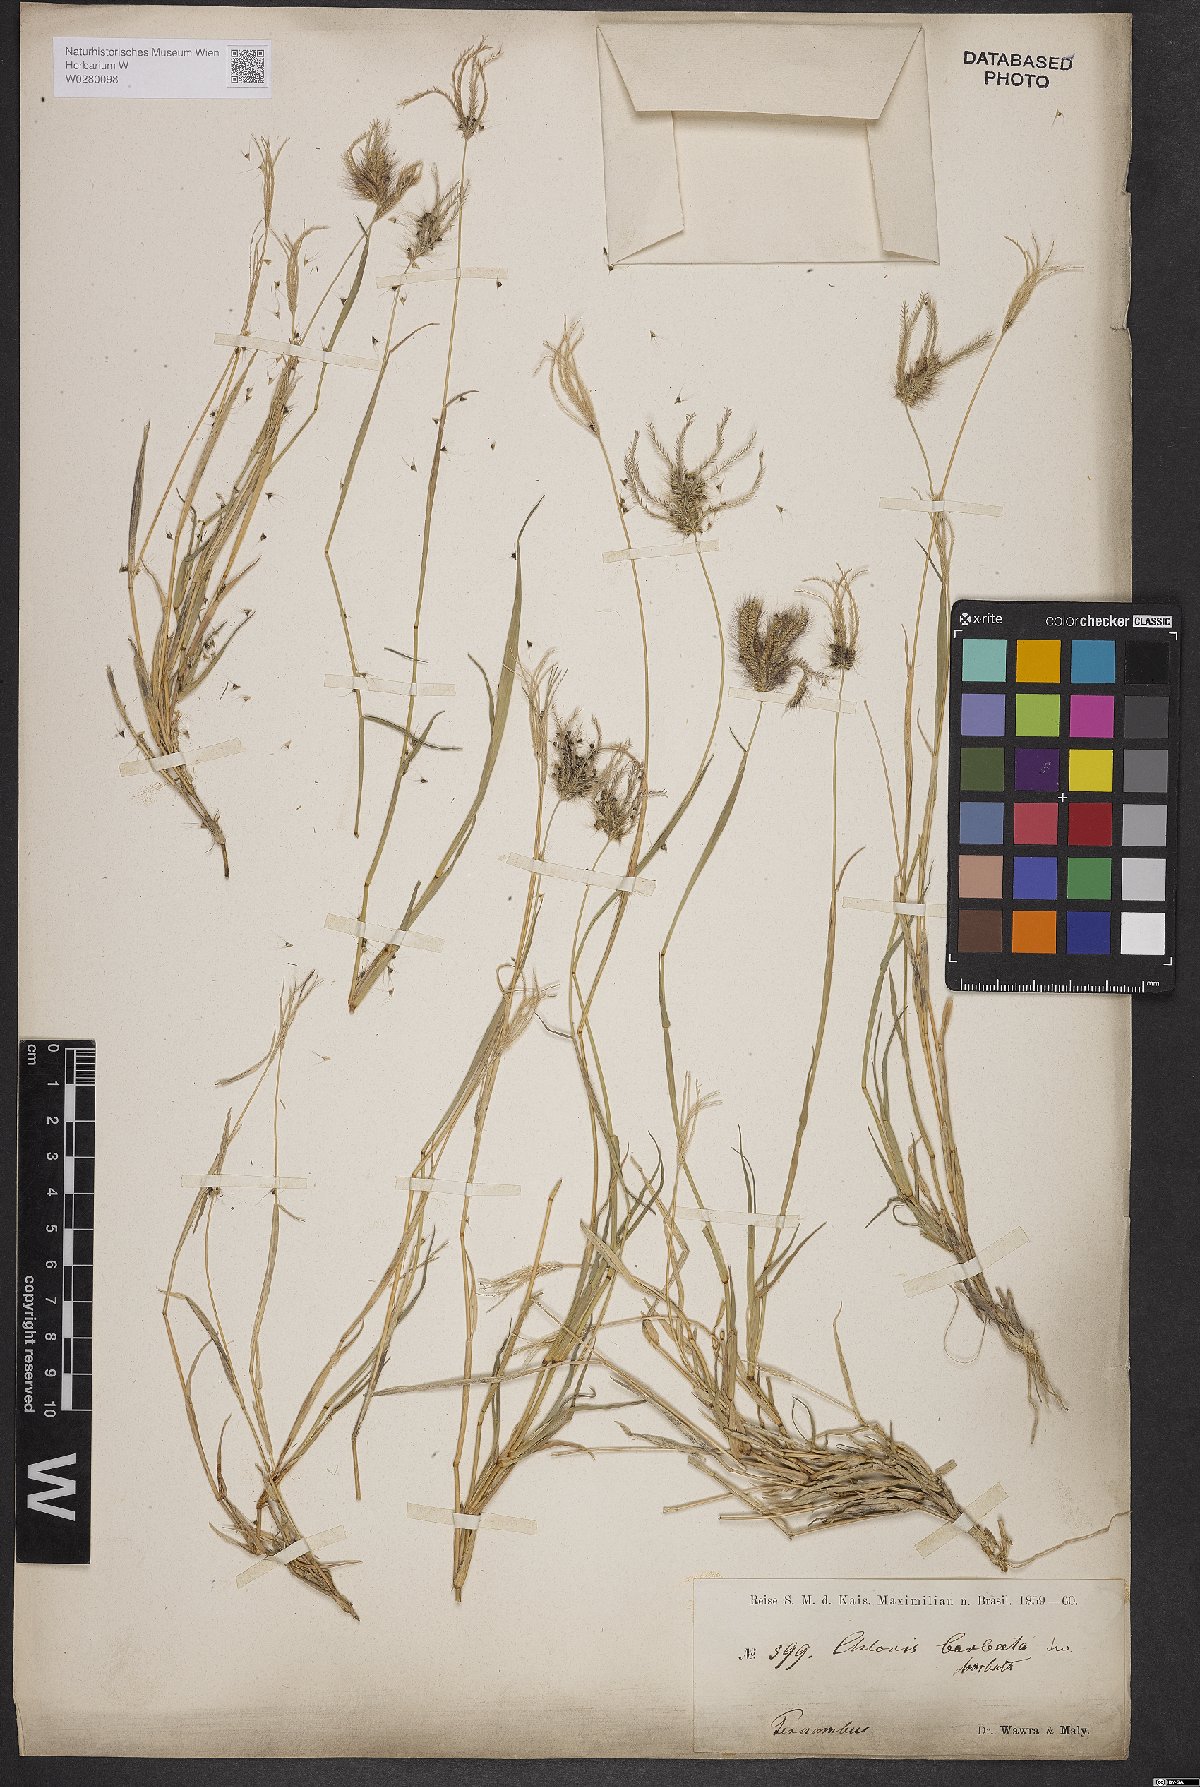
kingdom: Plantae
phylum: Tracheophyta
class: Liliopsida
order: Poales
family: Poaceae
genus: Chloris
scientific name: Chloris barbata
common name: Swollen fingergrass
